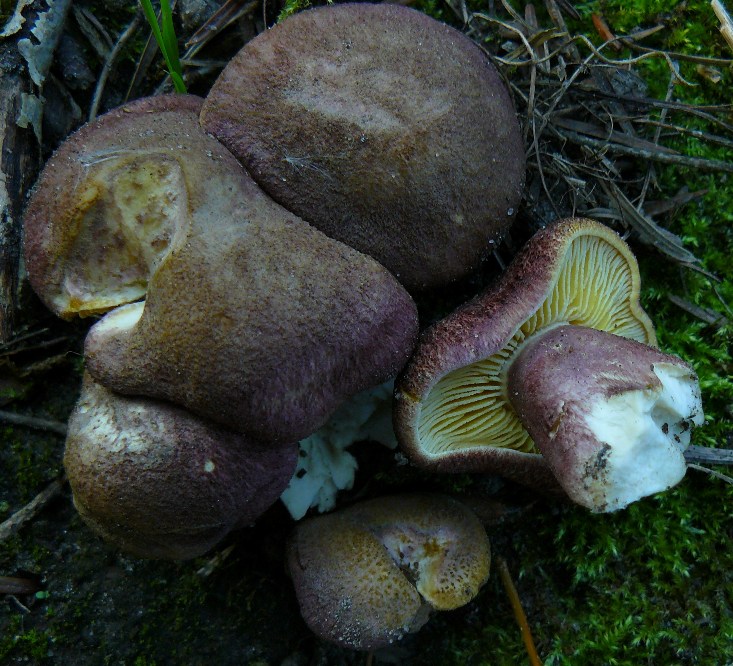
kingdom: Fungi
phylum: Basidiomycota
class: Agaricomycetes
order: Agaricales
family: Tricholomataceae
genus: Tricholomopsis
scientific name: Tricholomopsis rutilans
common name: purpur-væbnerhat
